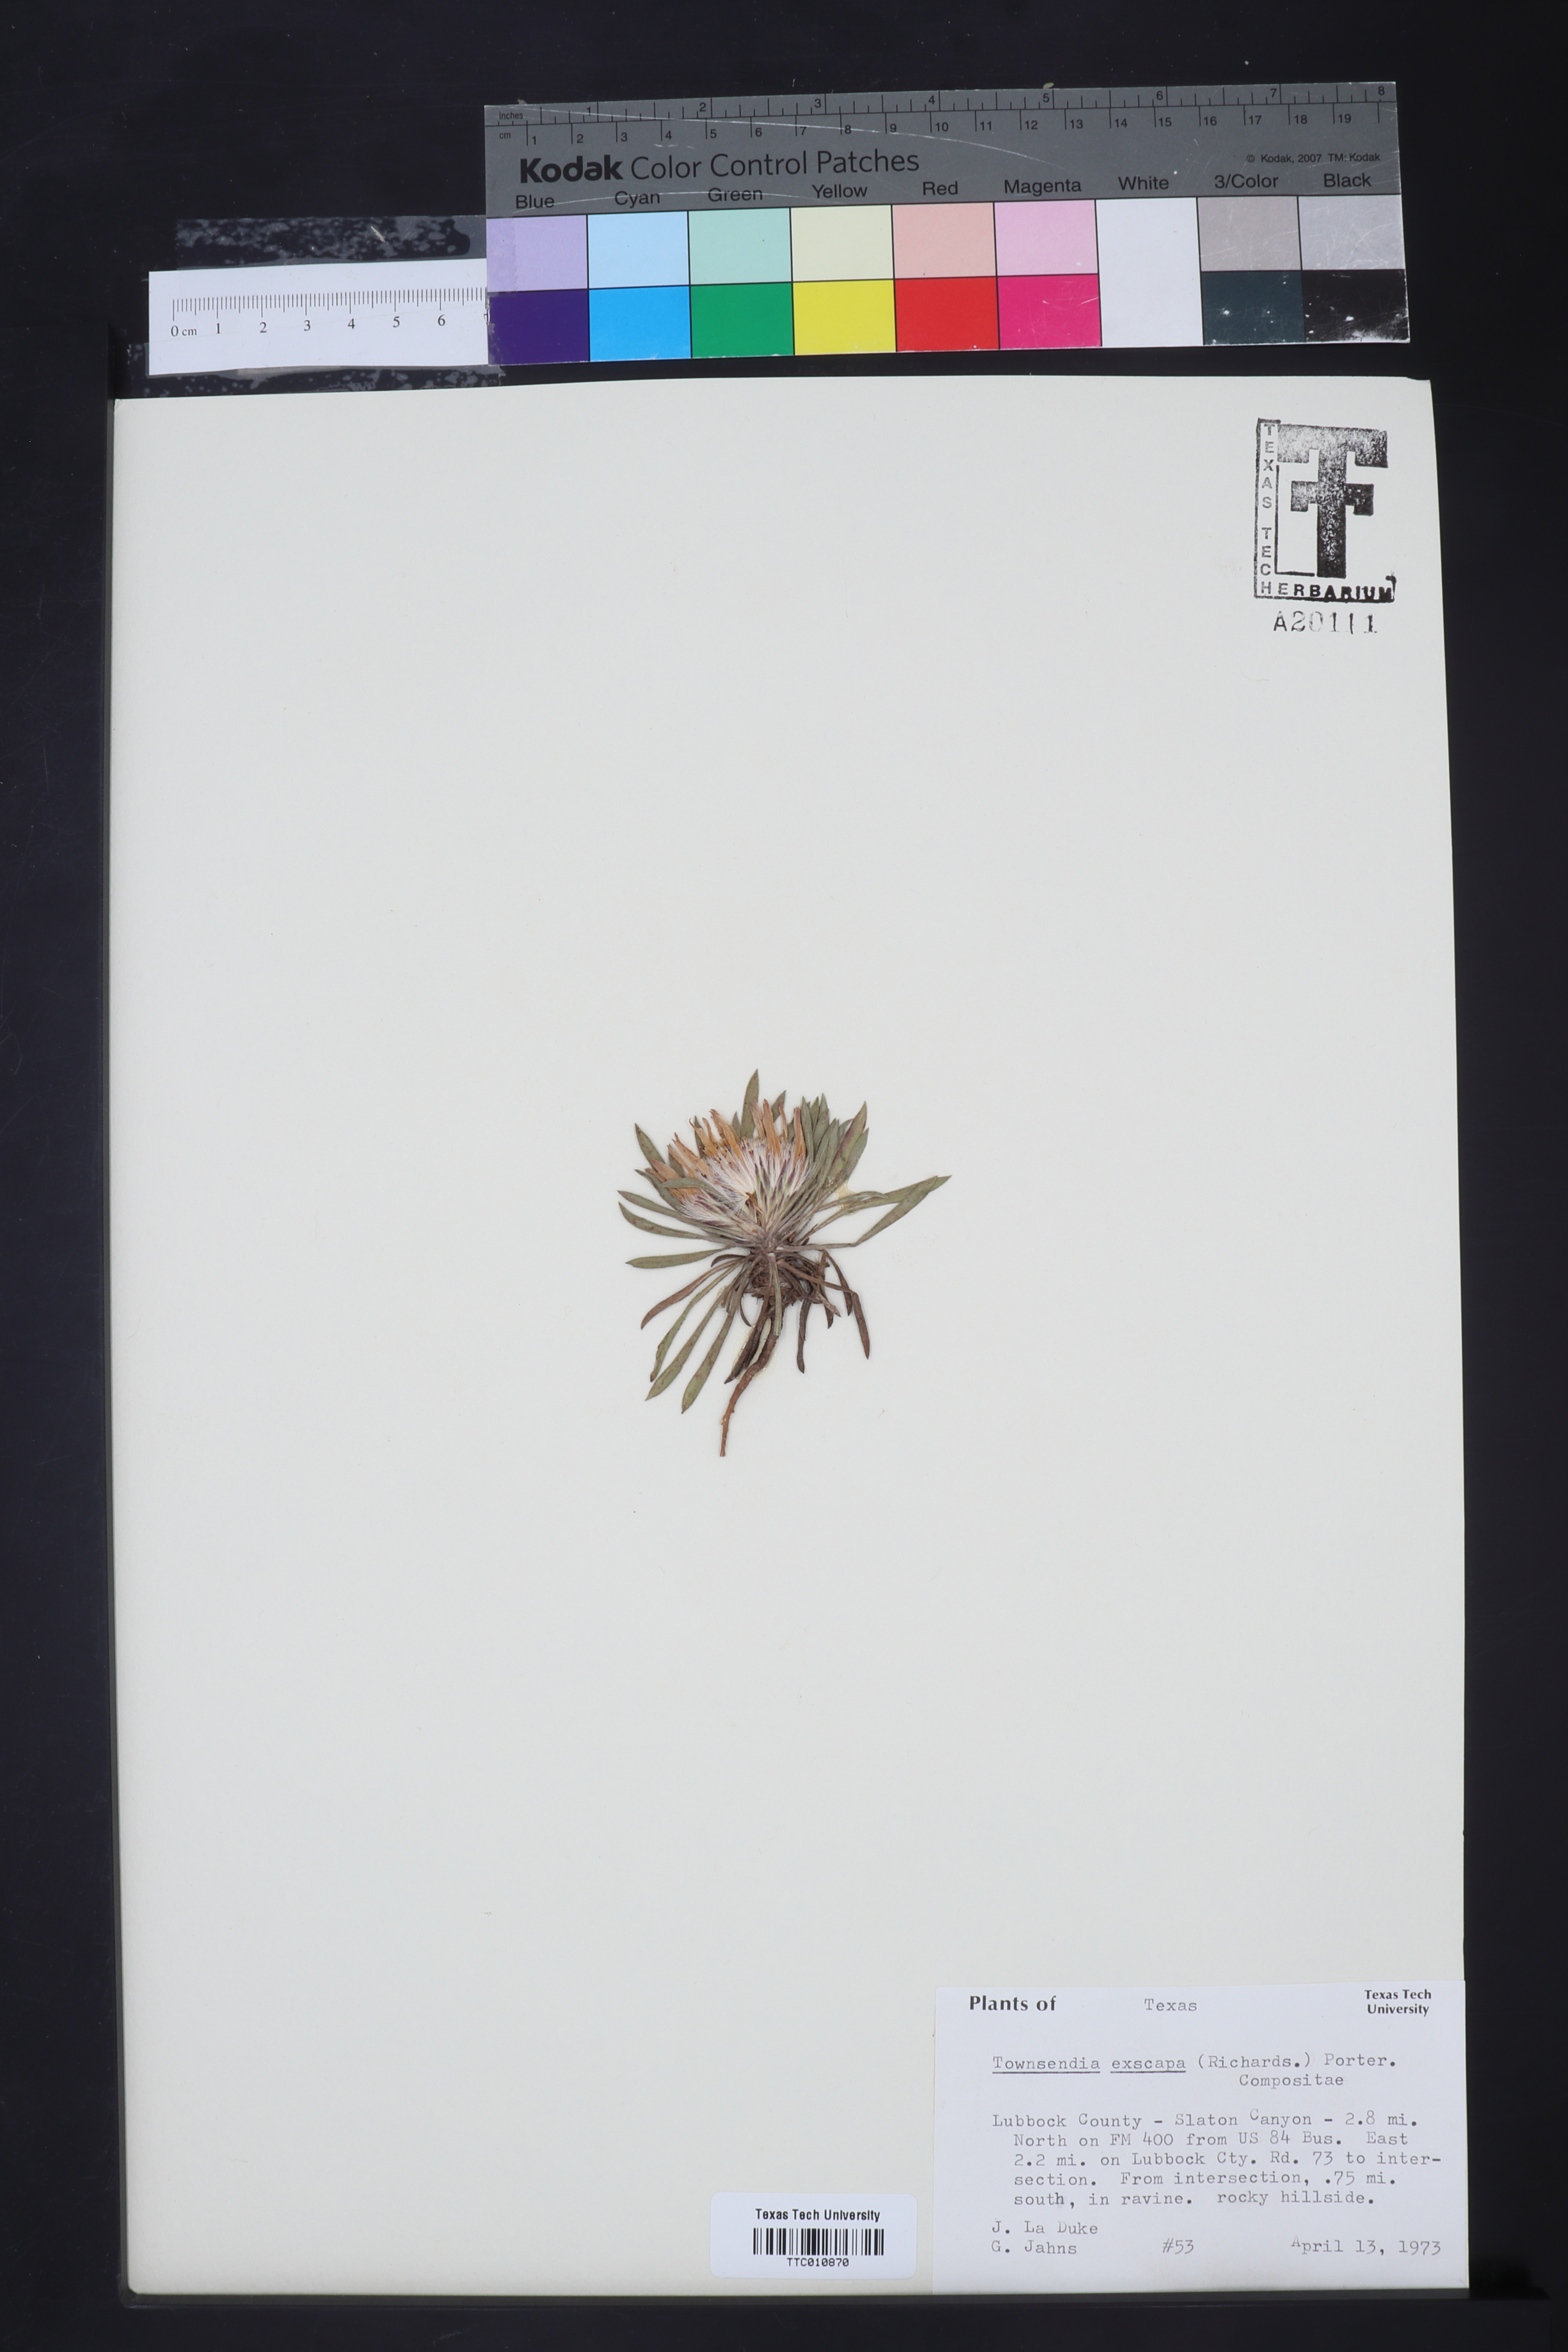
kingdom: Plantae
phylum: Tracheophyta
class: Magnoliopsida
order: Asterales
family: Asteraceae
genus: Townsendia
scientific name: Townsendia exscapa
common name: Dwarf townsendia
